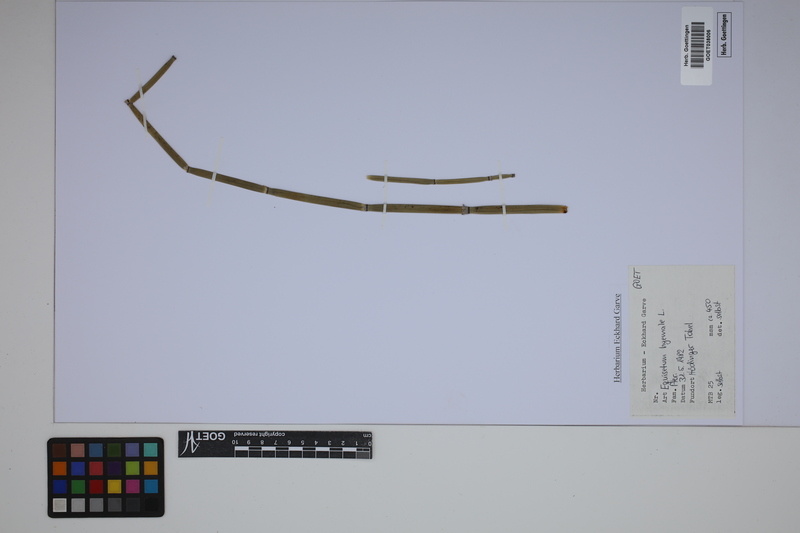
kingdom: Plantae
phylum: Tracheophyta
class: Polypodiopsida
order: Equisetales
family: Equisetaceae
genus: Equisetum
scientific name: Equisetum hyemale
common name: Rough horsetail
